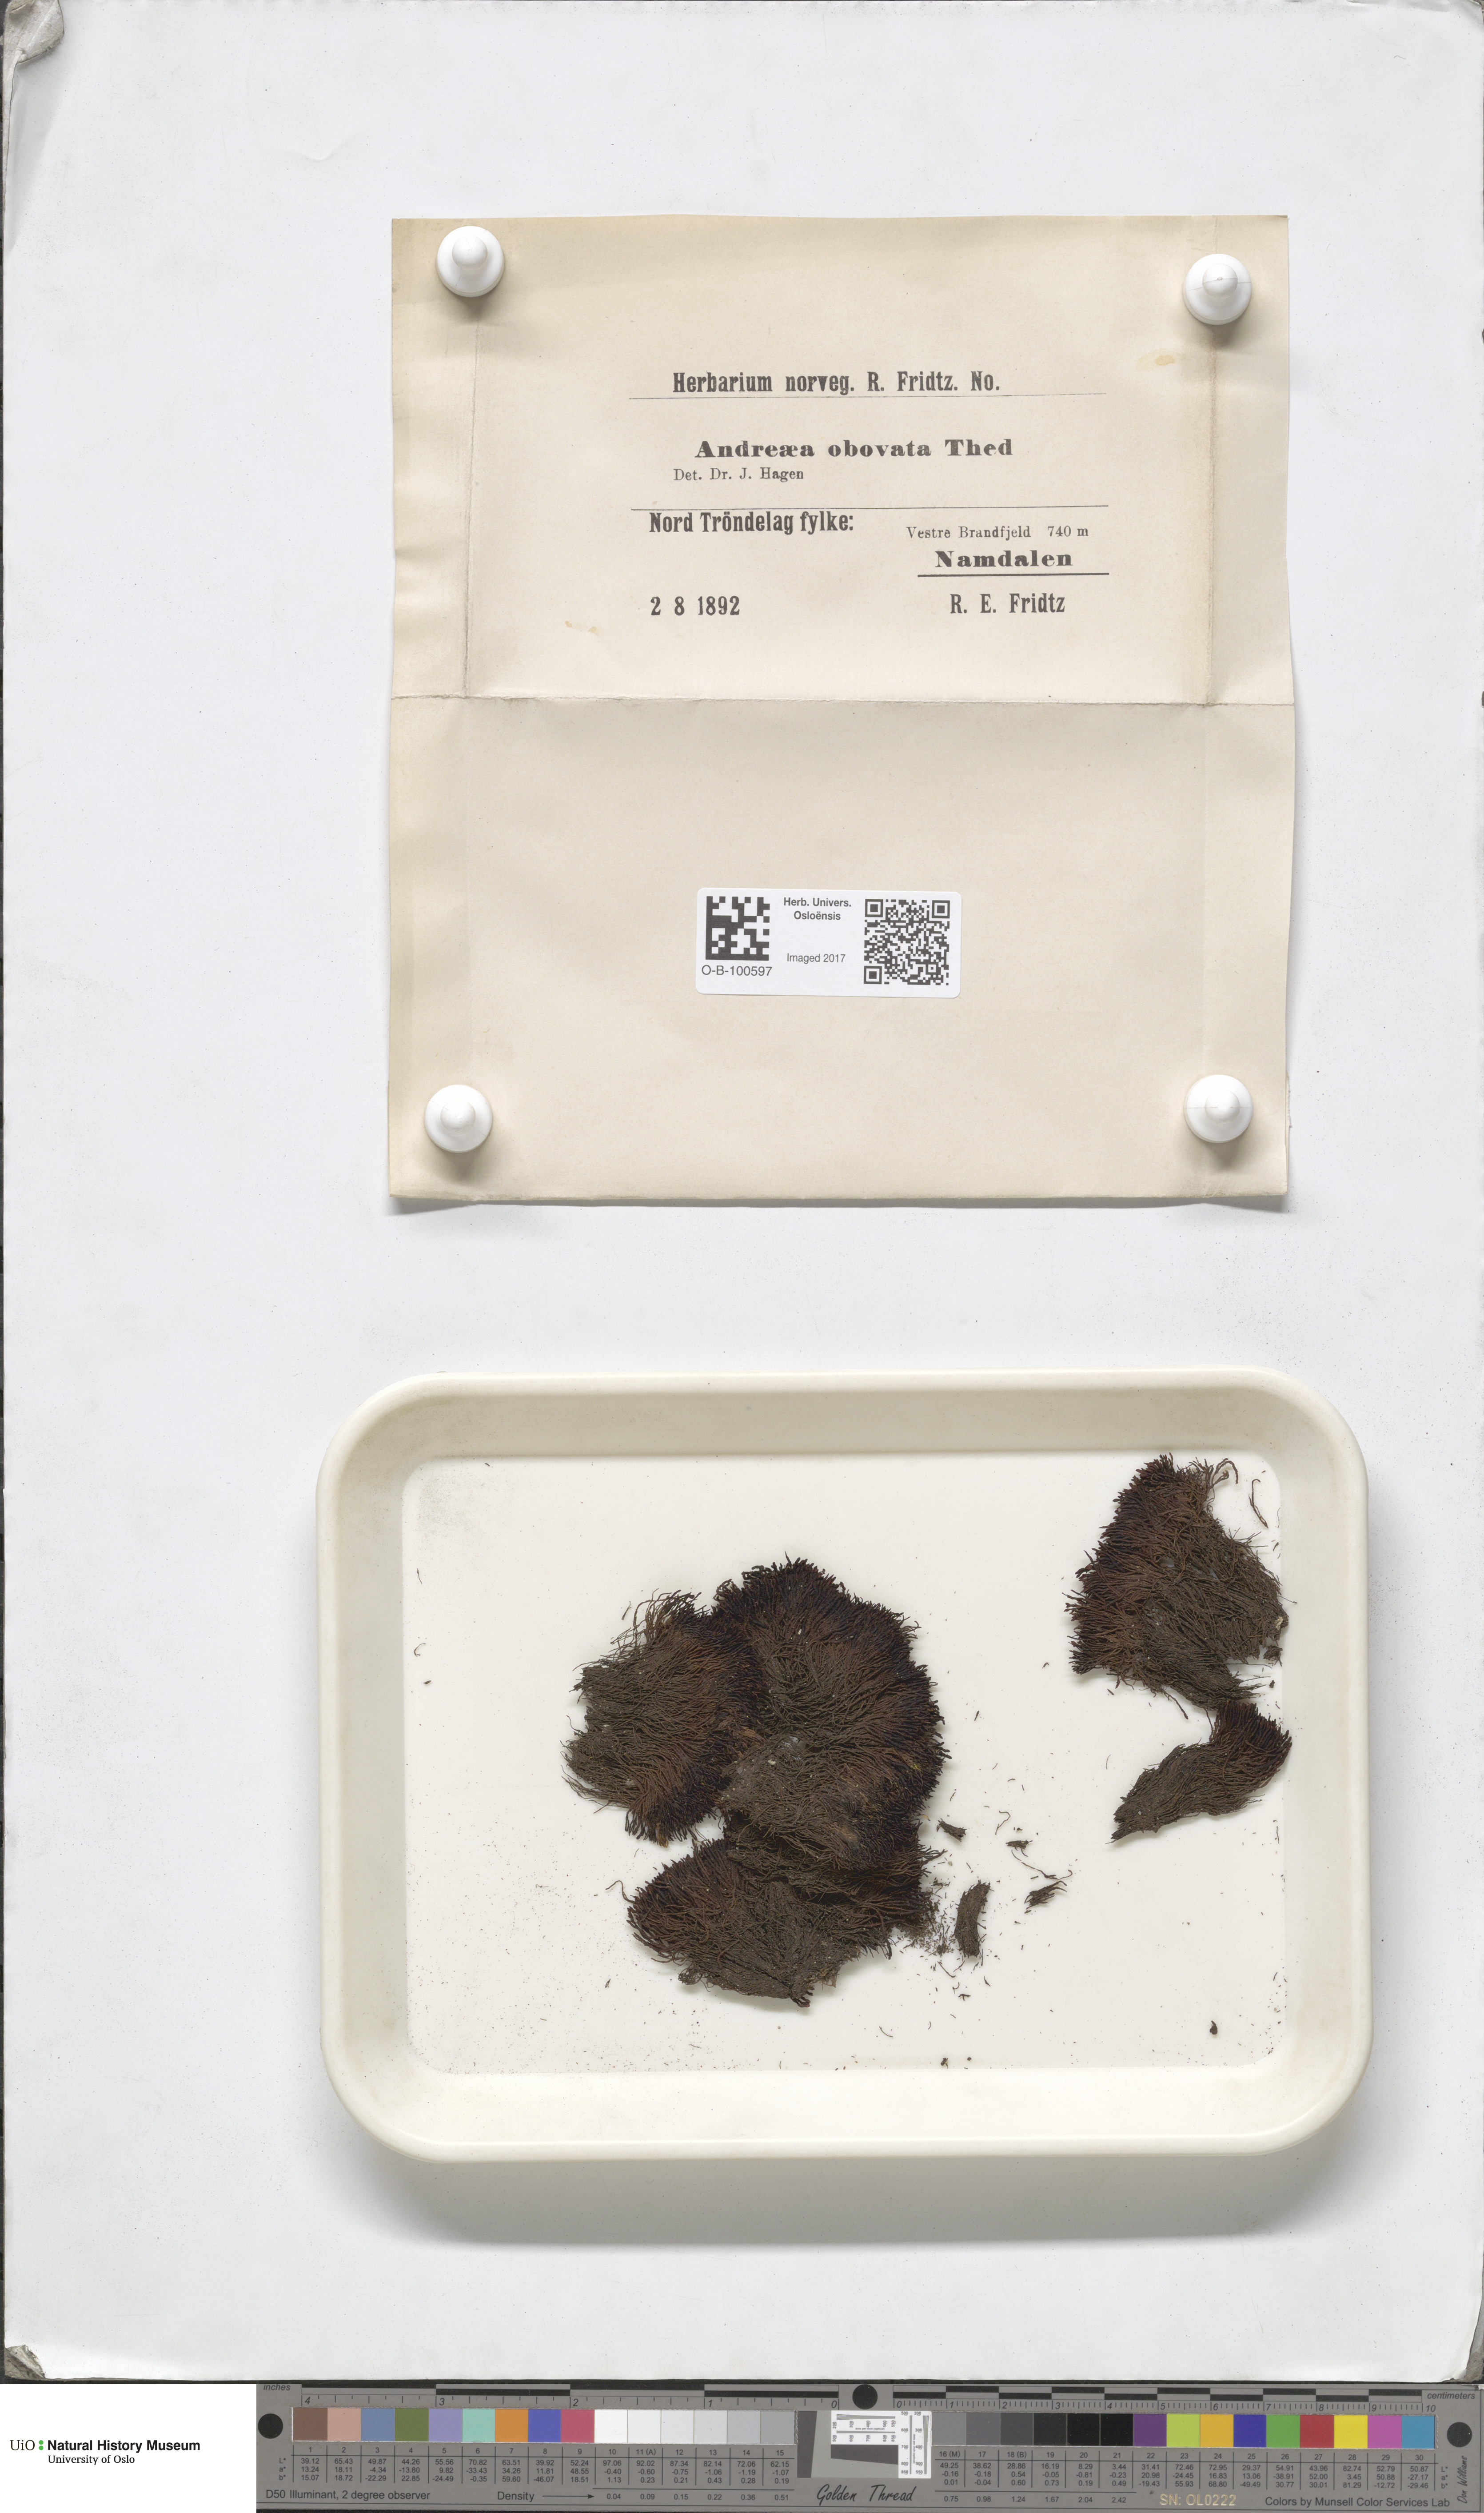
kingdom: Plantae
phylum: Bryophyta
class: Andreaeopsida
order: Andreaeales
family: Andreaeaceae
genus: Andreaea
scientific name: Andreaea alpina
